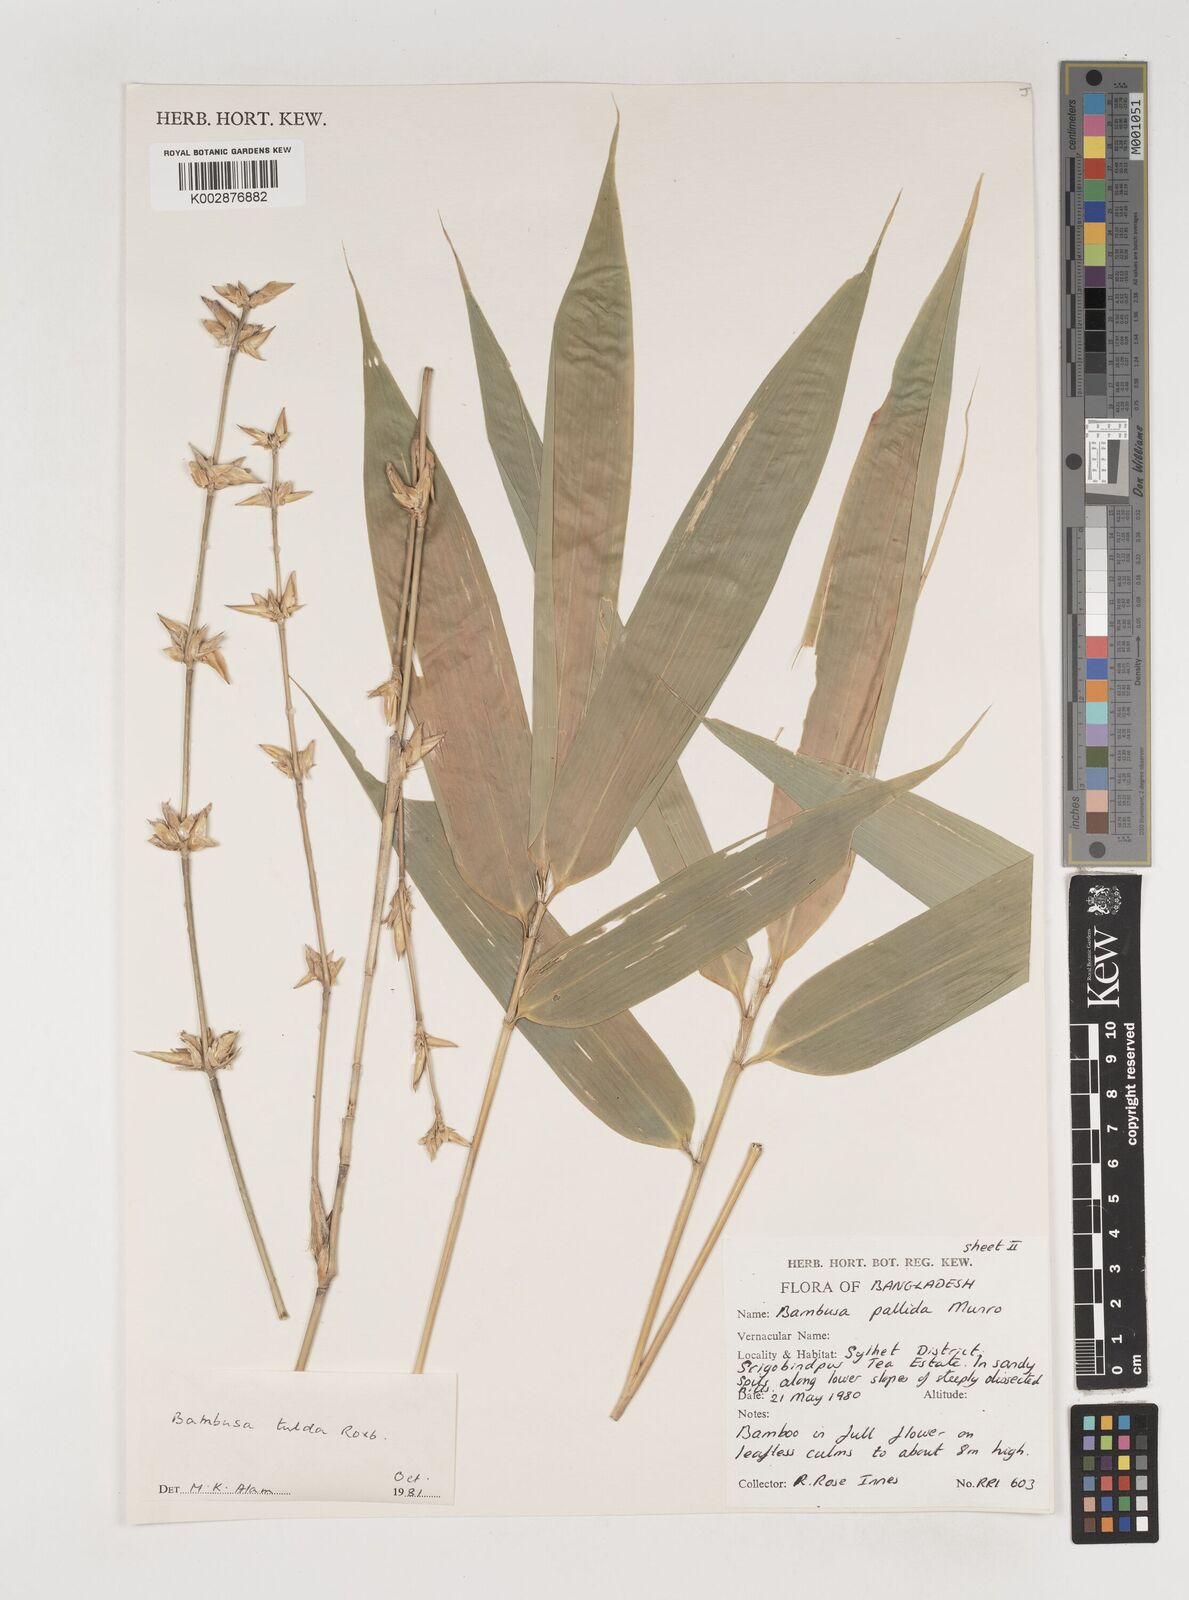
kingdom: Plantae
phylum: Tracheophyta
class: Liliopsida
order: Poales
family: Poaceae
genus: Bambusa
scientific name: Bambusa tuldoides
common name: Verdant bamboo
